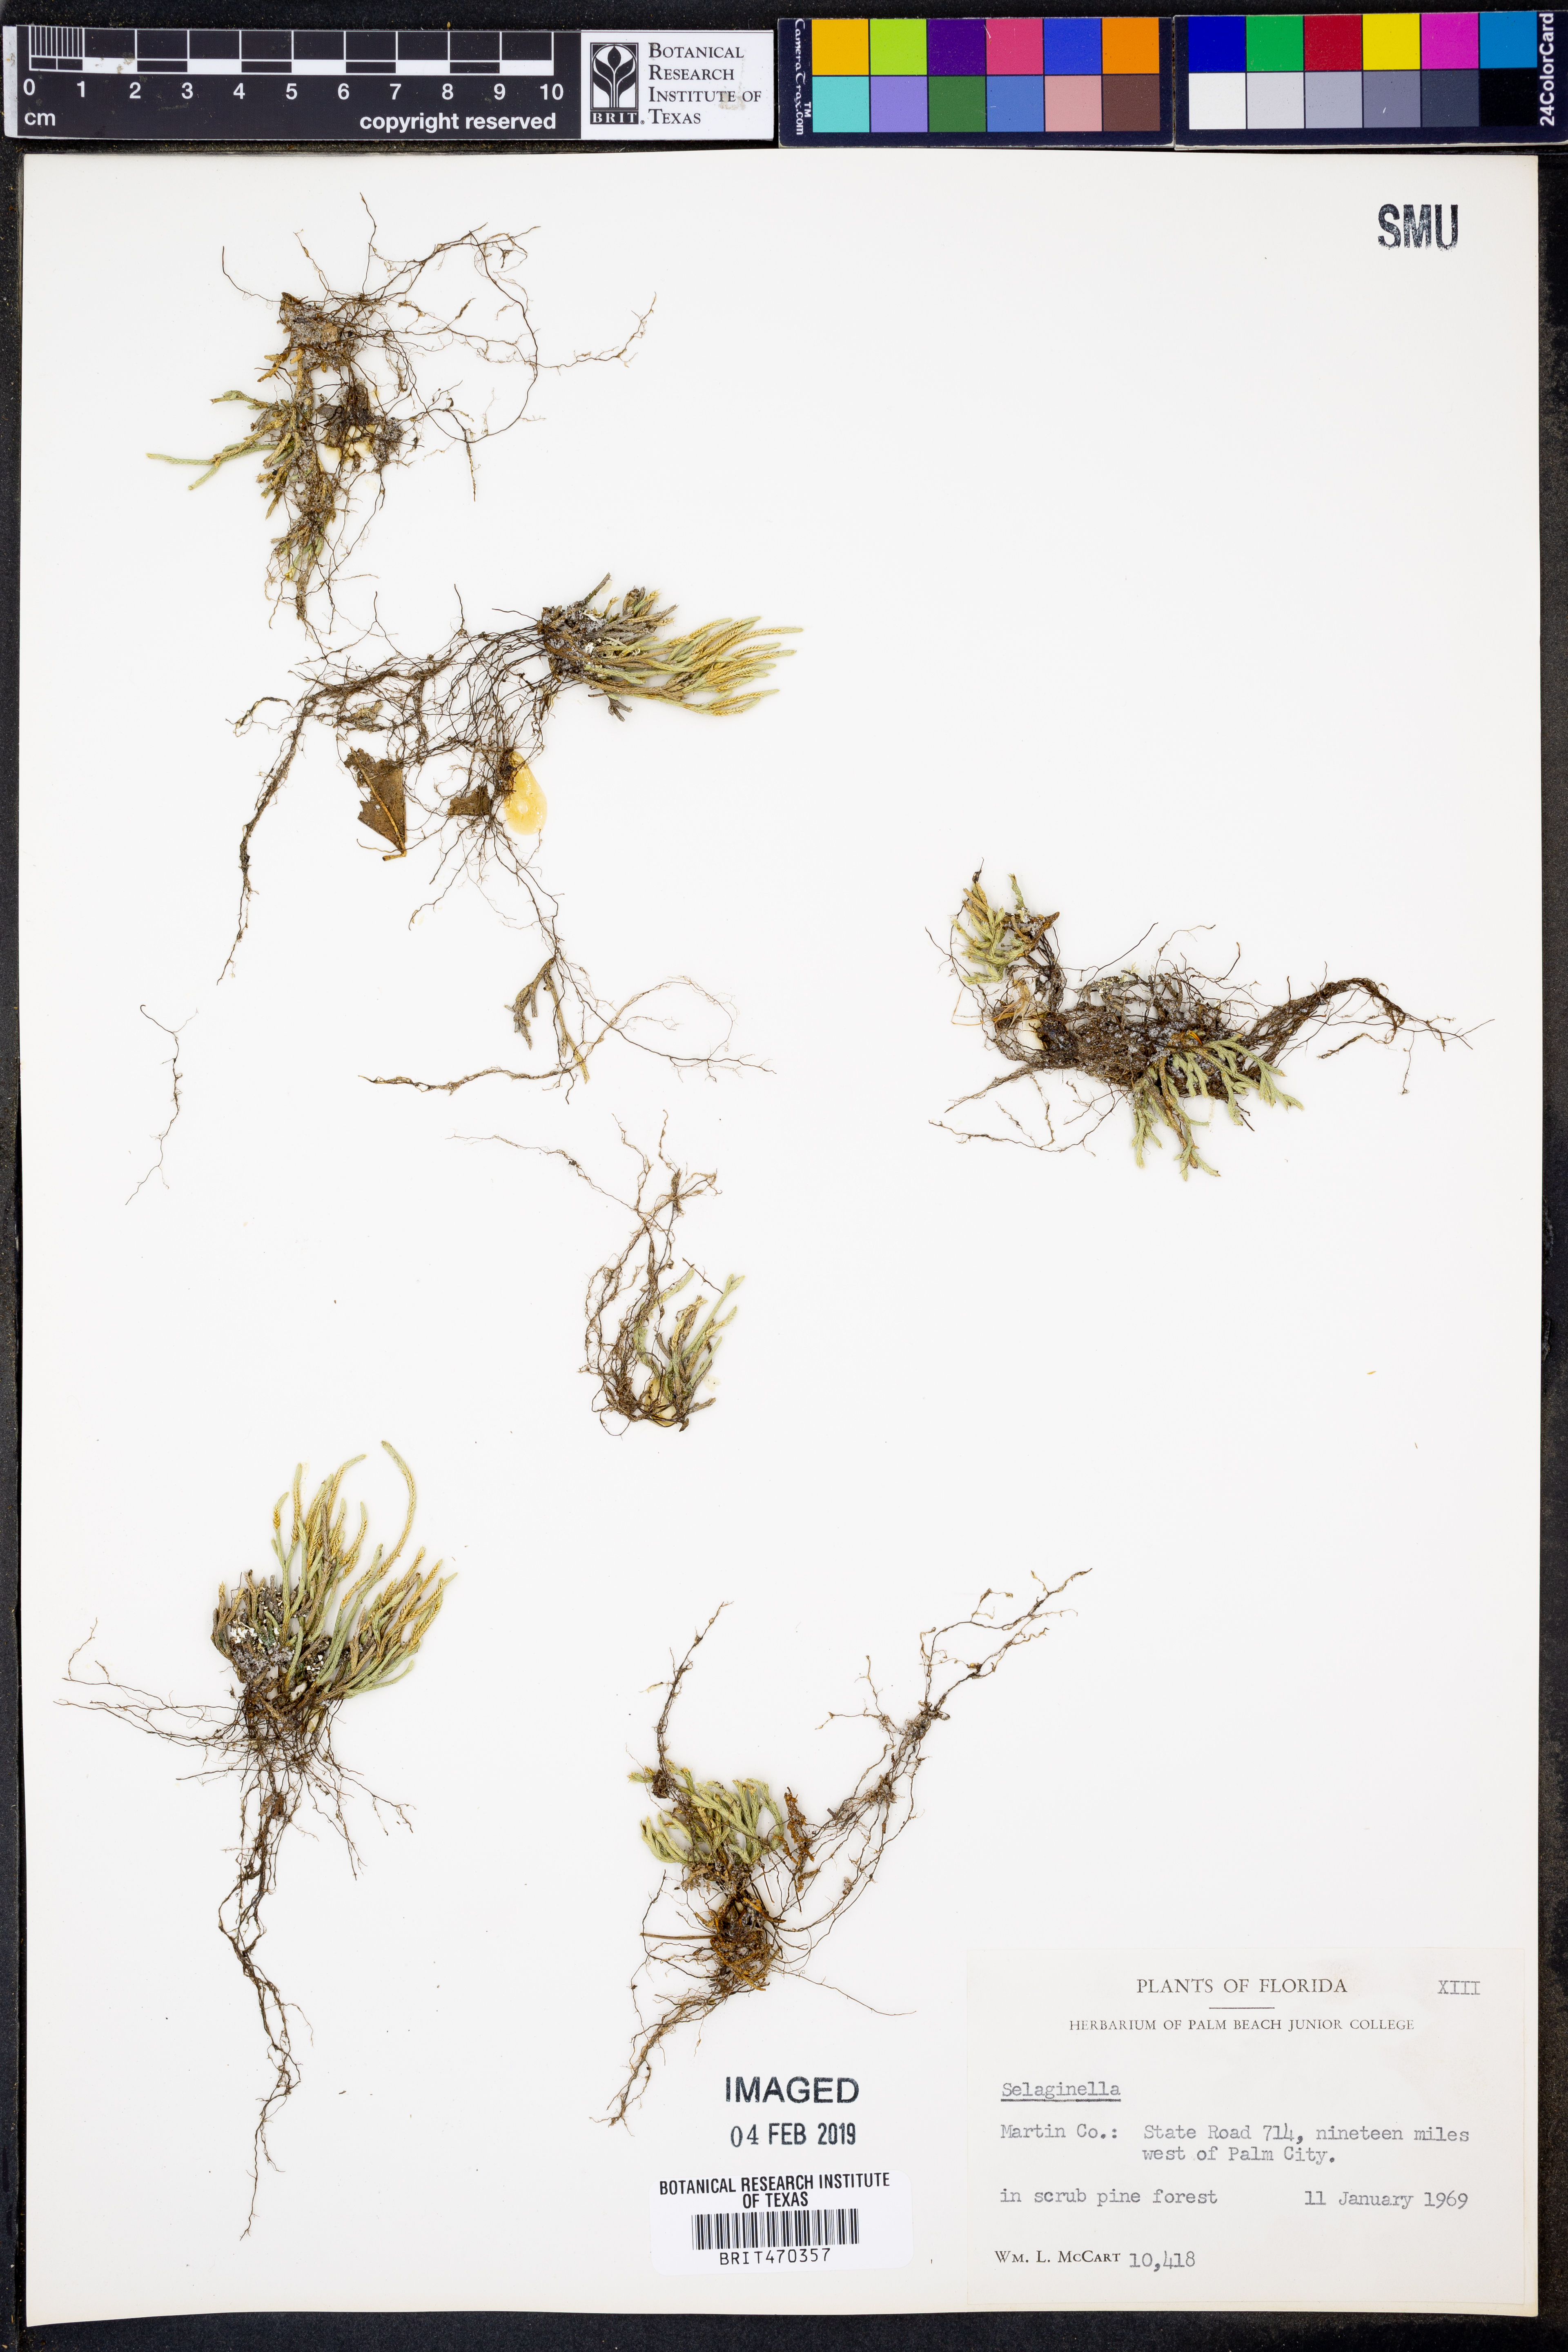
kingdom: Plantae
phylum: Tracheophyta
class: Lycopodiopsida
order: Selaginellales
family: Selaginellaceae
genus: Selaginella
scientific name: Selaginella
